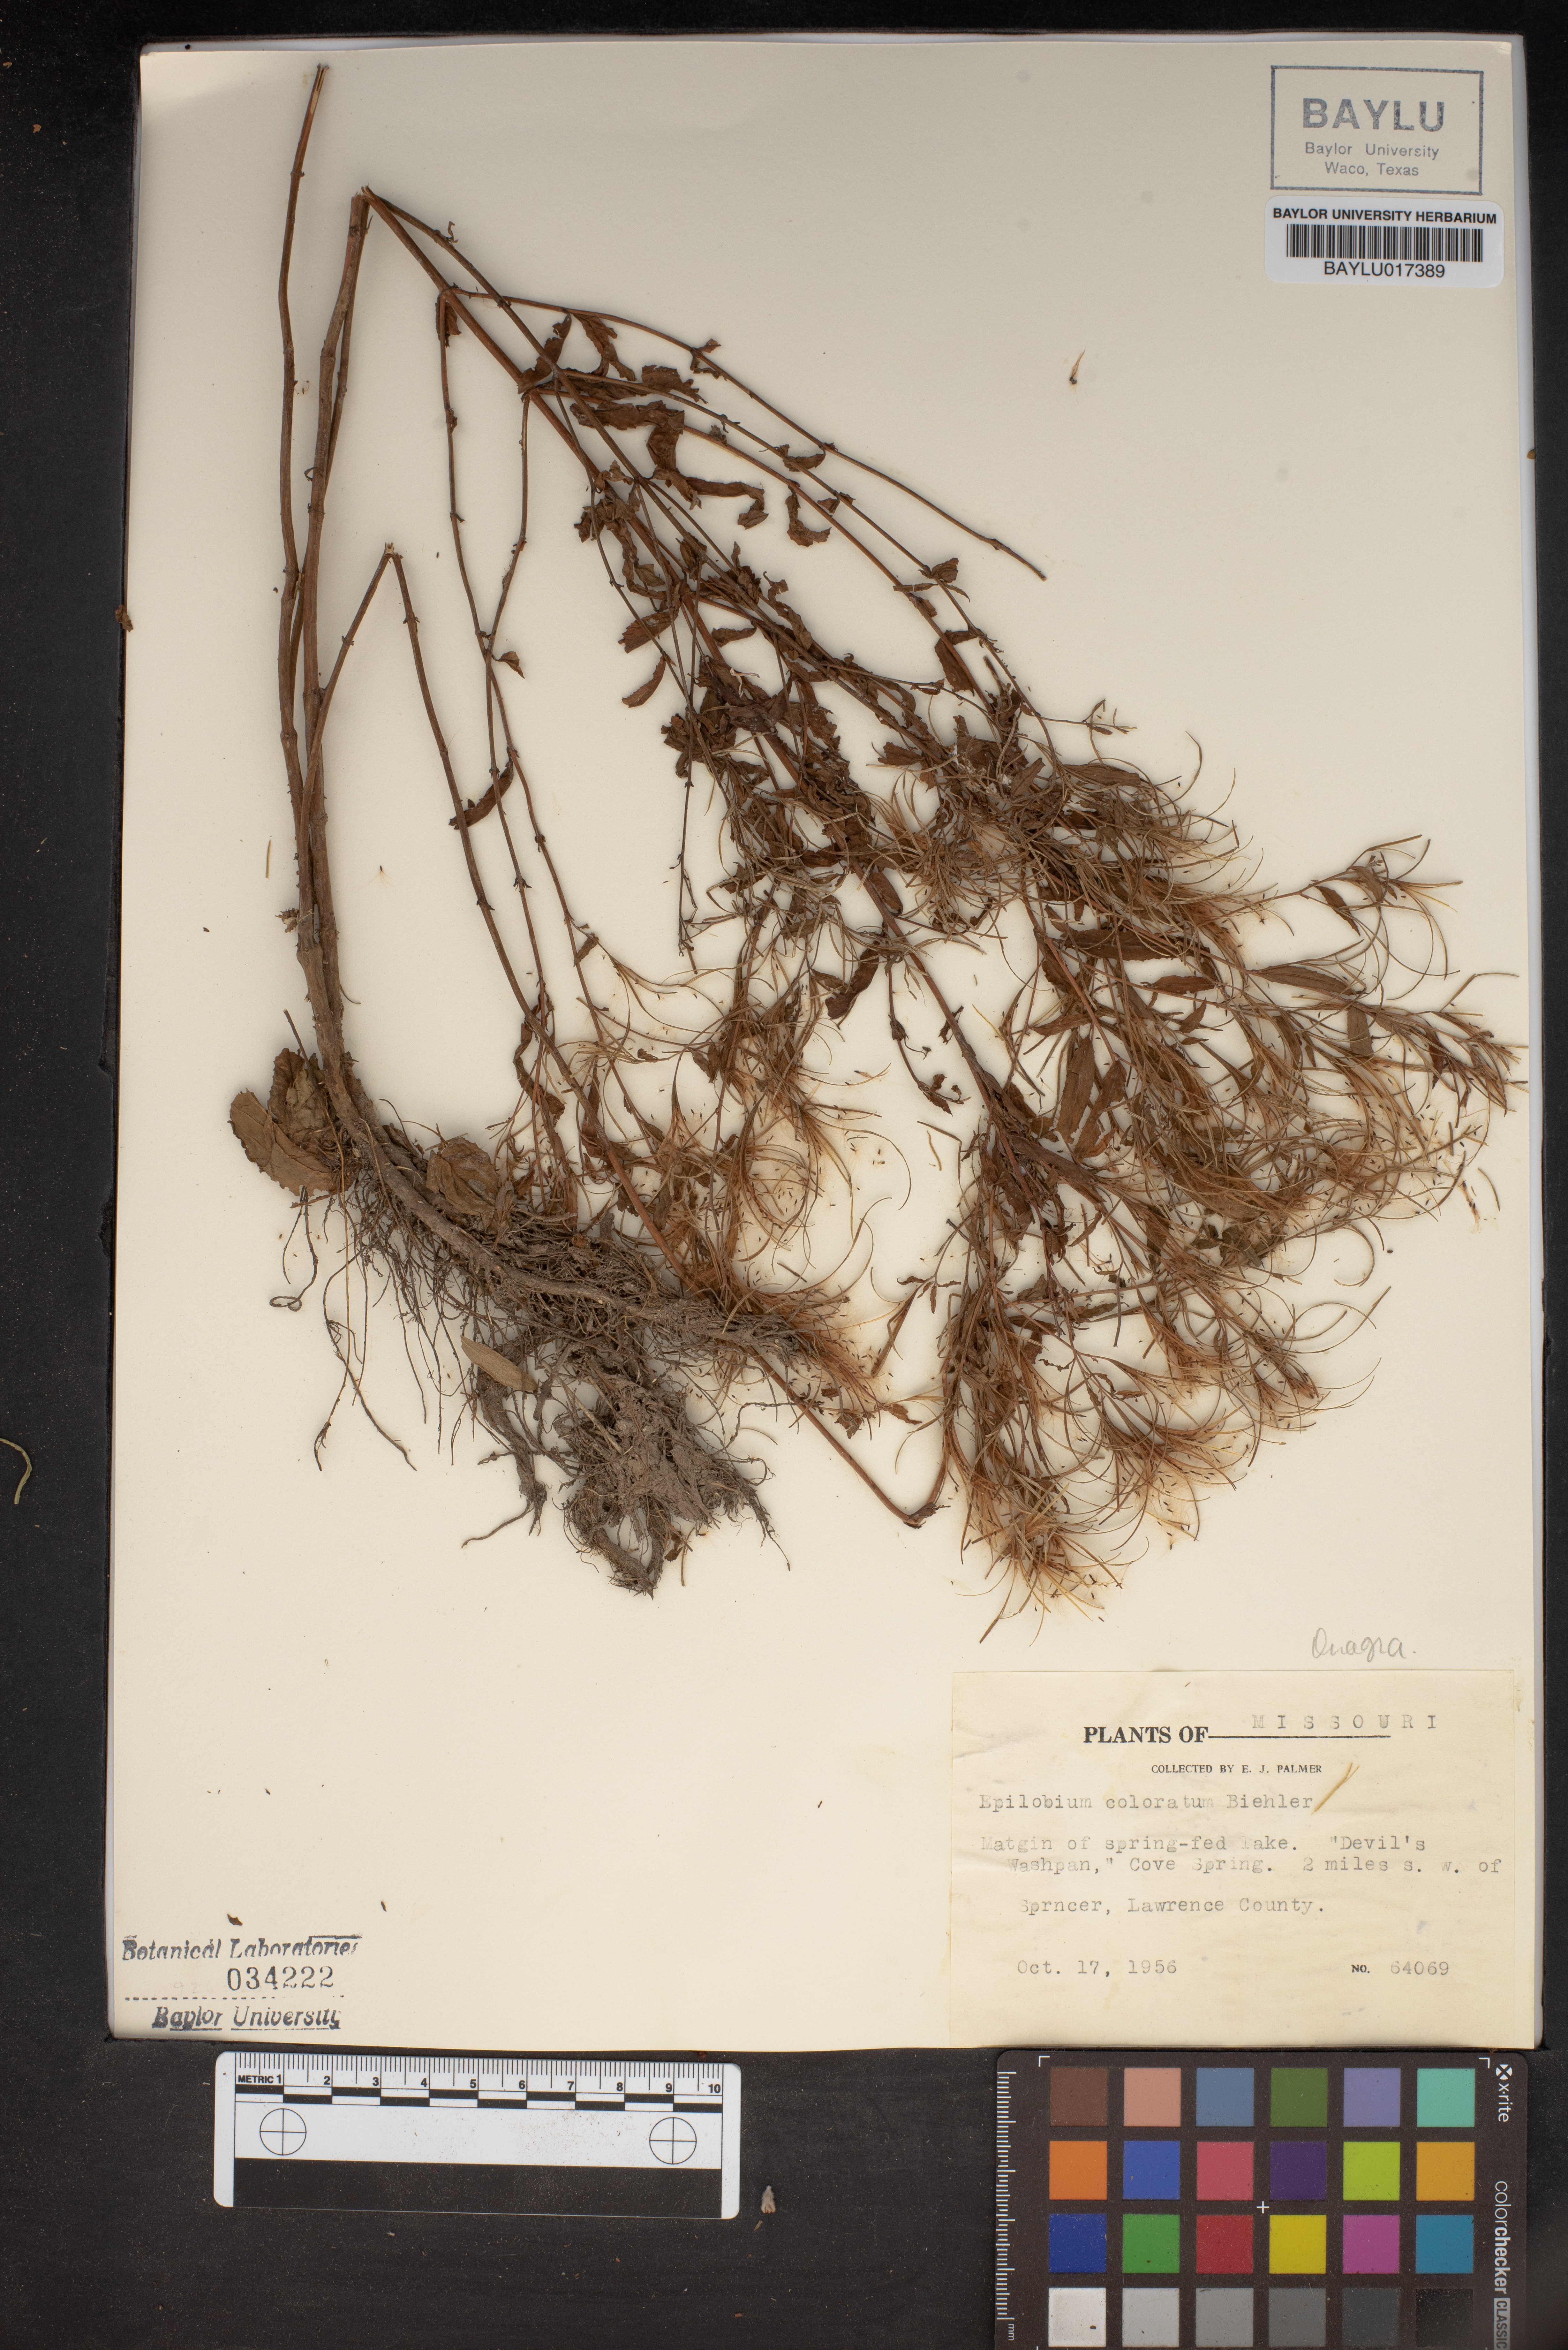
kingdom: Plantae
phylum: Tracheophyta
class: Magnoliopsida
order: Myrtales
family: Onagraceae
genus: Epilobium
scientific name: Epilobium coloratum
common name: Bronze willowherb
